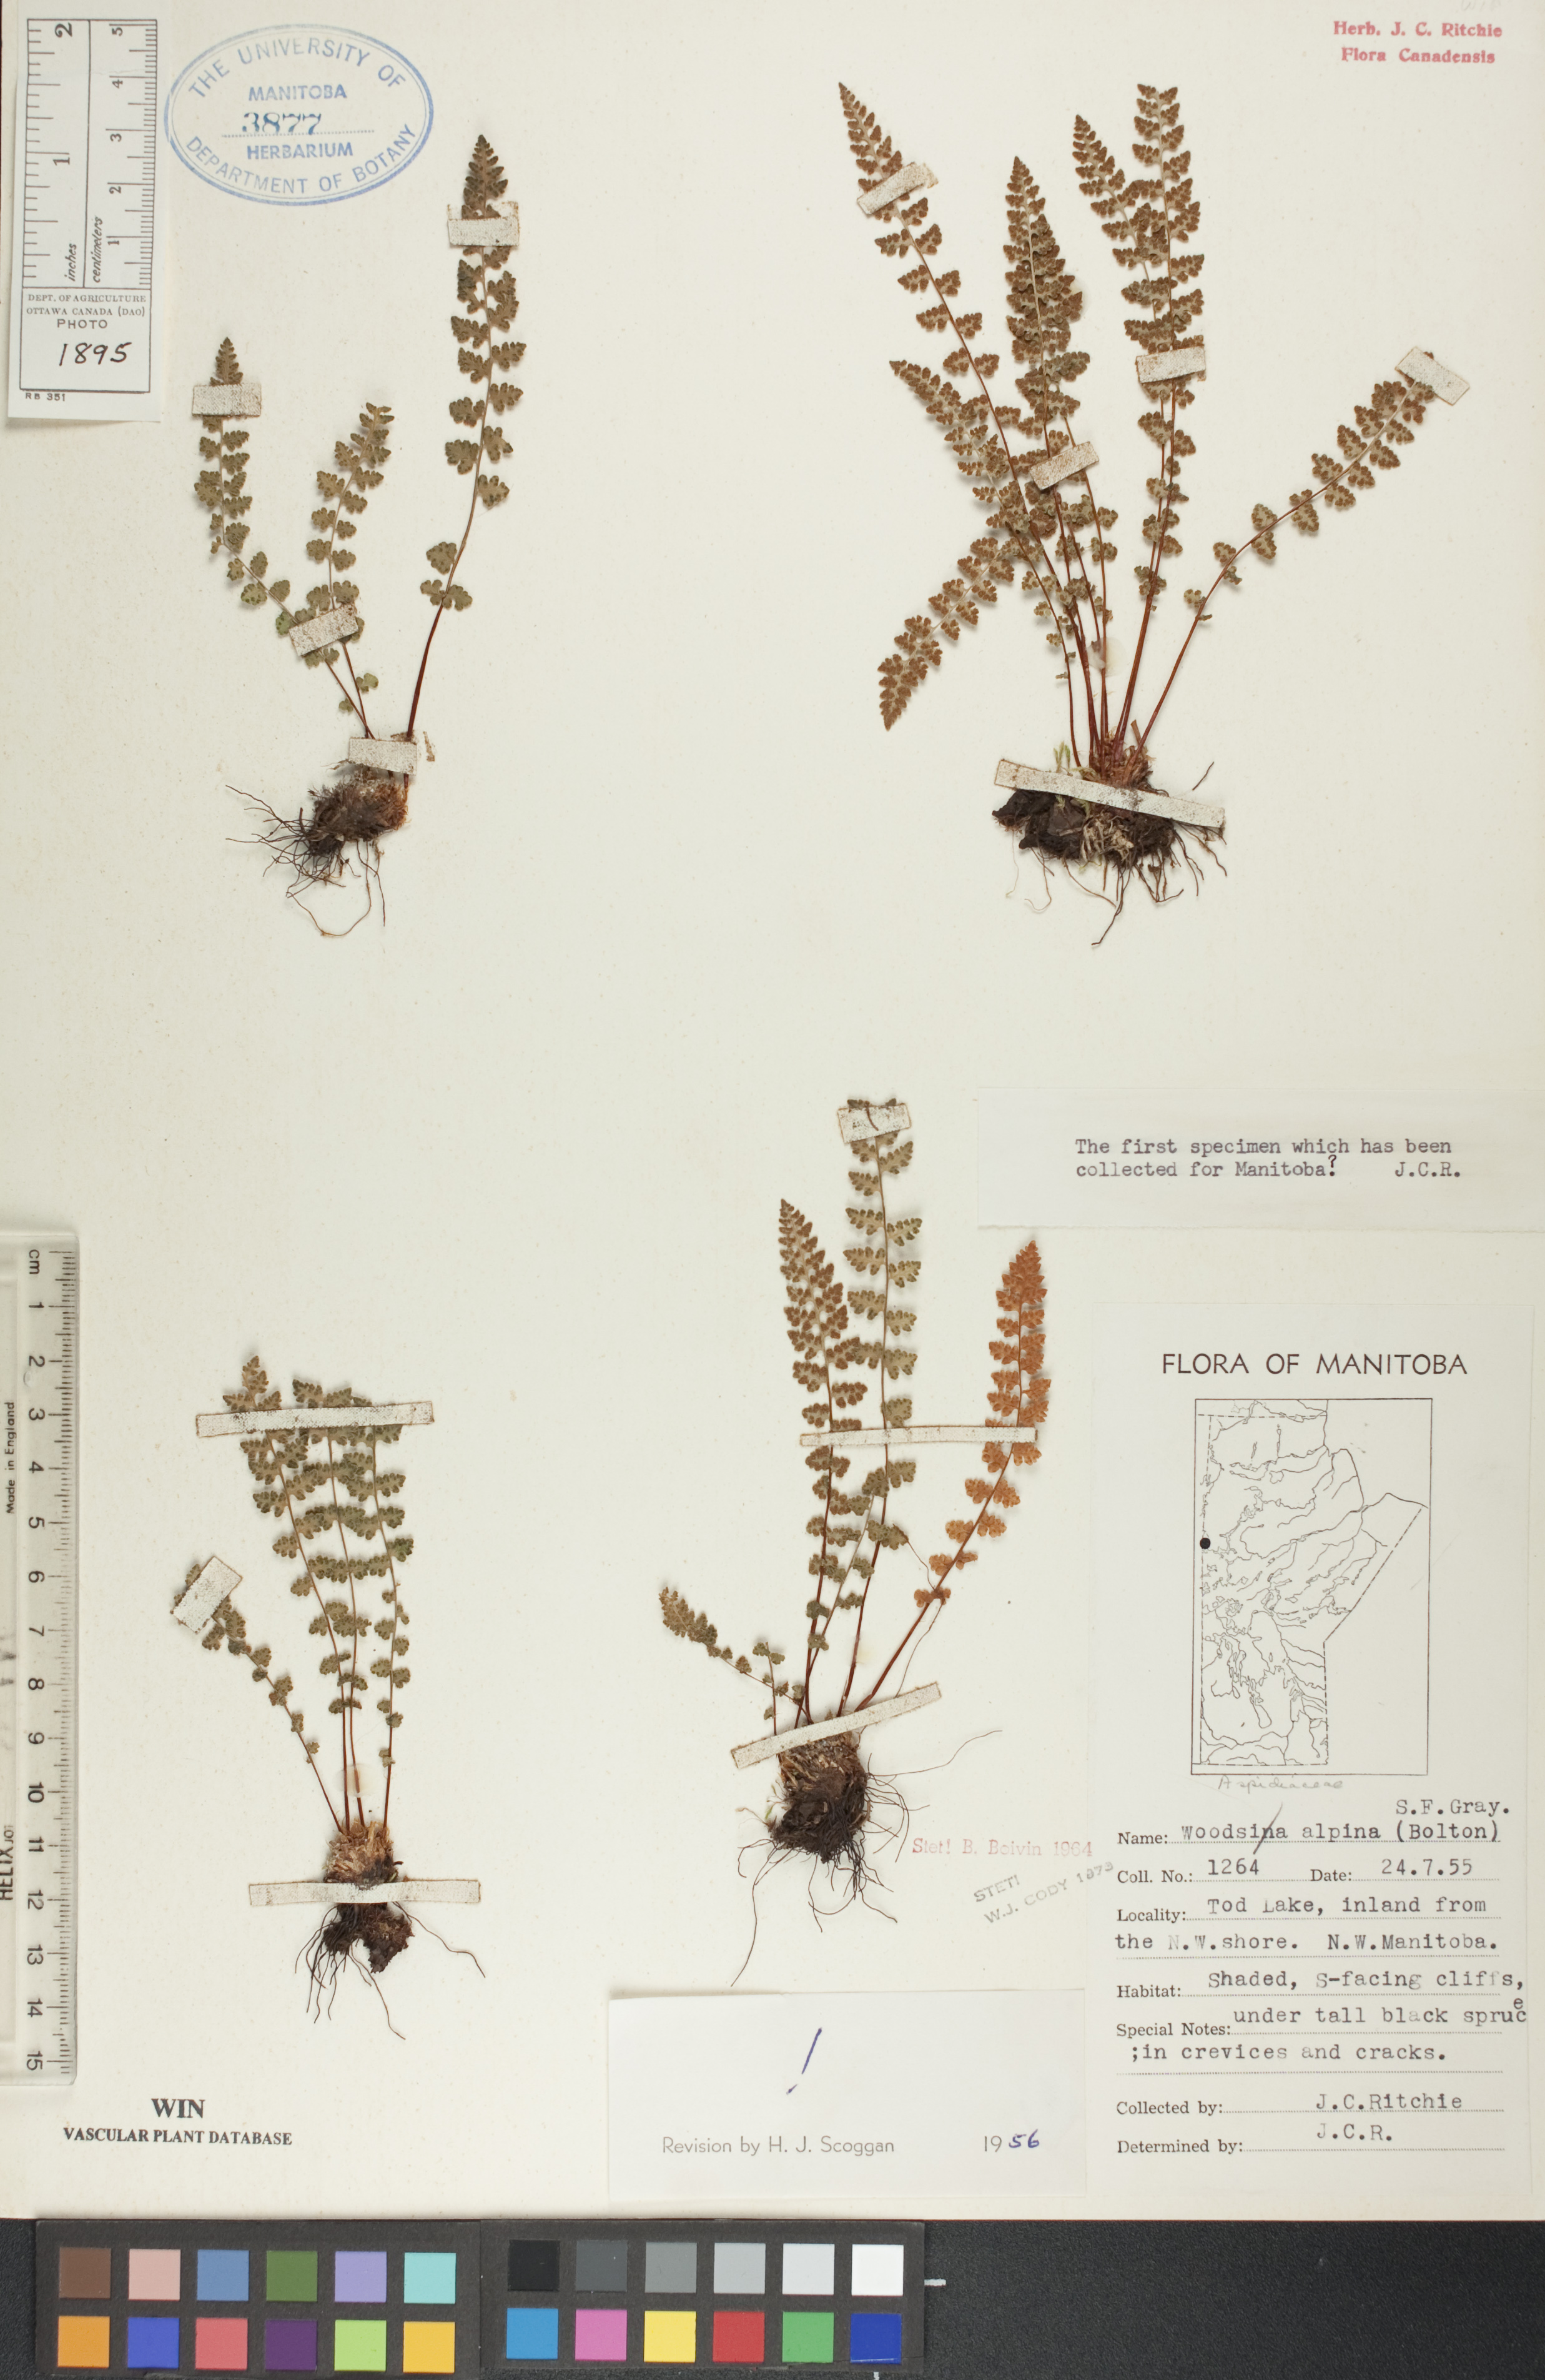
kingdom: Plantae
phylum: Tracheophyta
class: Polypodiopsida
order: Polypodiales
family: Woodsiaceae
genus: Woodsia
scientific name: Woodsia alpina
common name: Alpine woodsia
